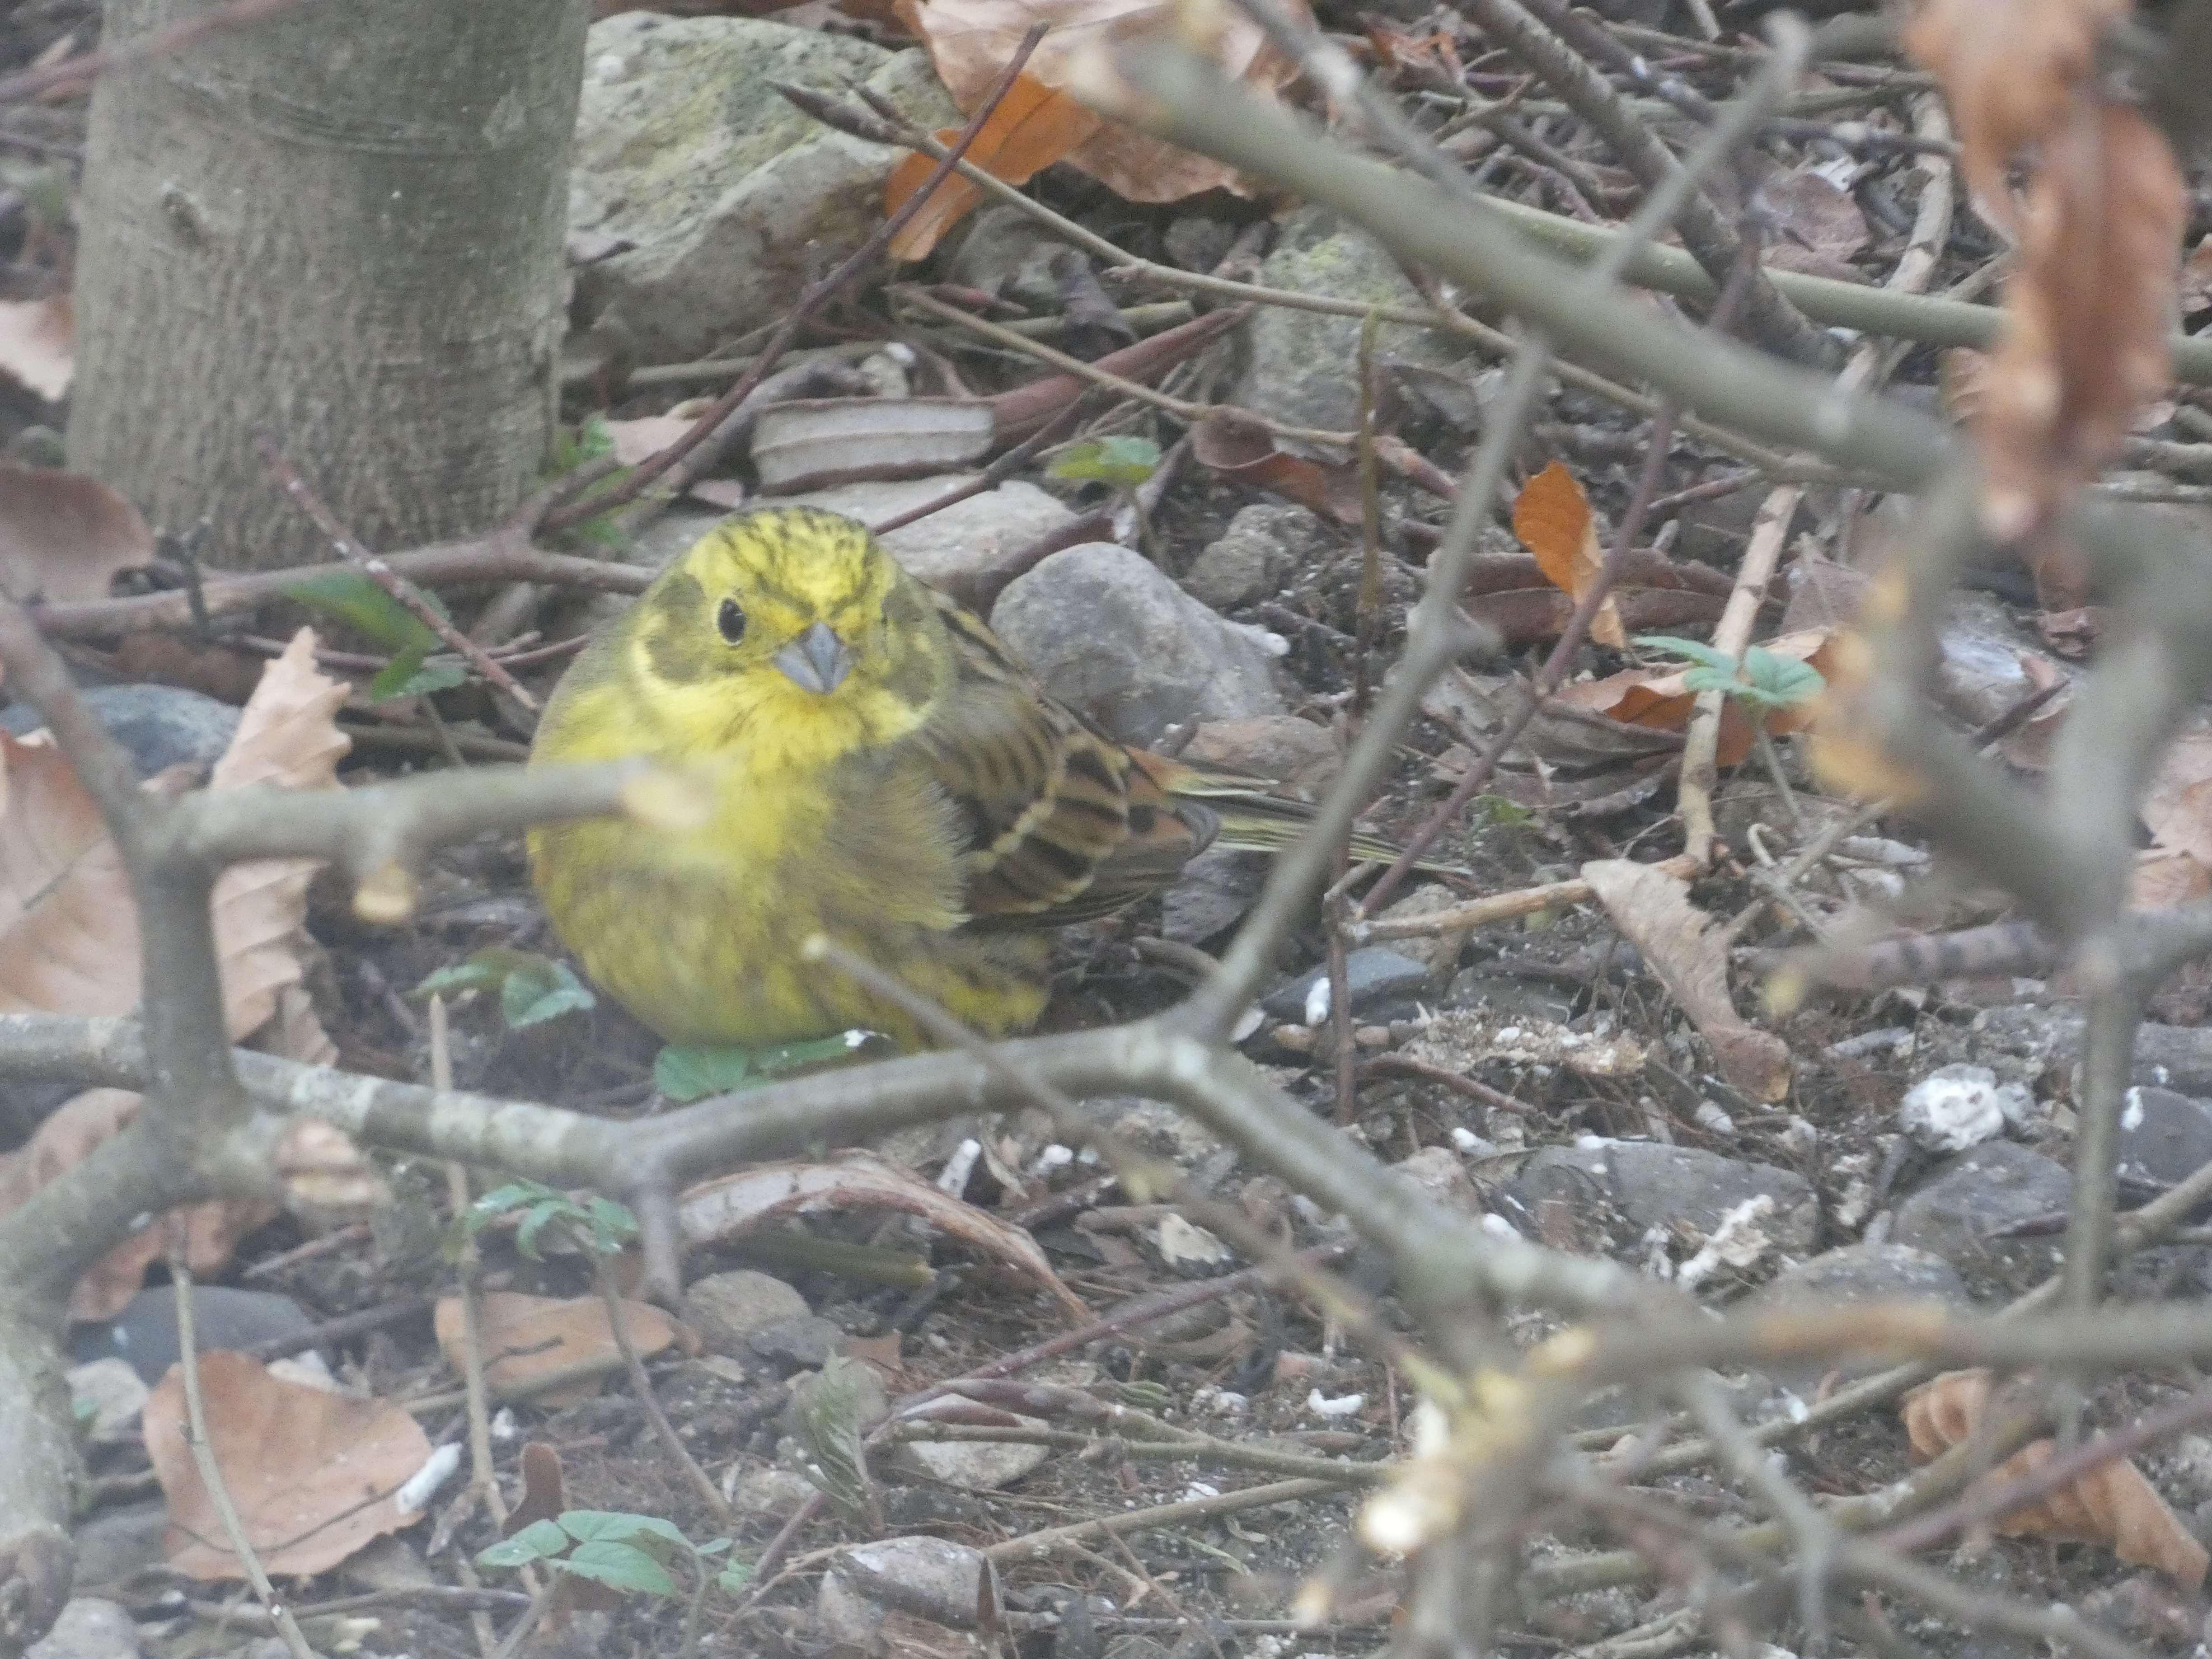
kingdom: Animalia
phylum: Chordata
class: Aves
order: Passeriformes
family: Emberizidae
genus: Emberiza
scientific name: Emberiza citrinella
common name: Gulspurv
